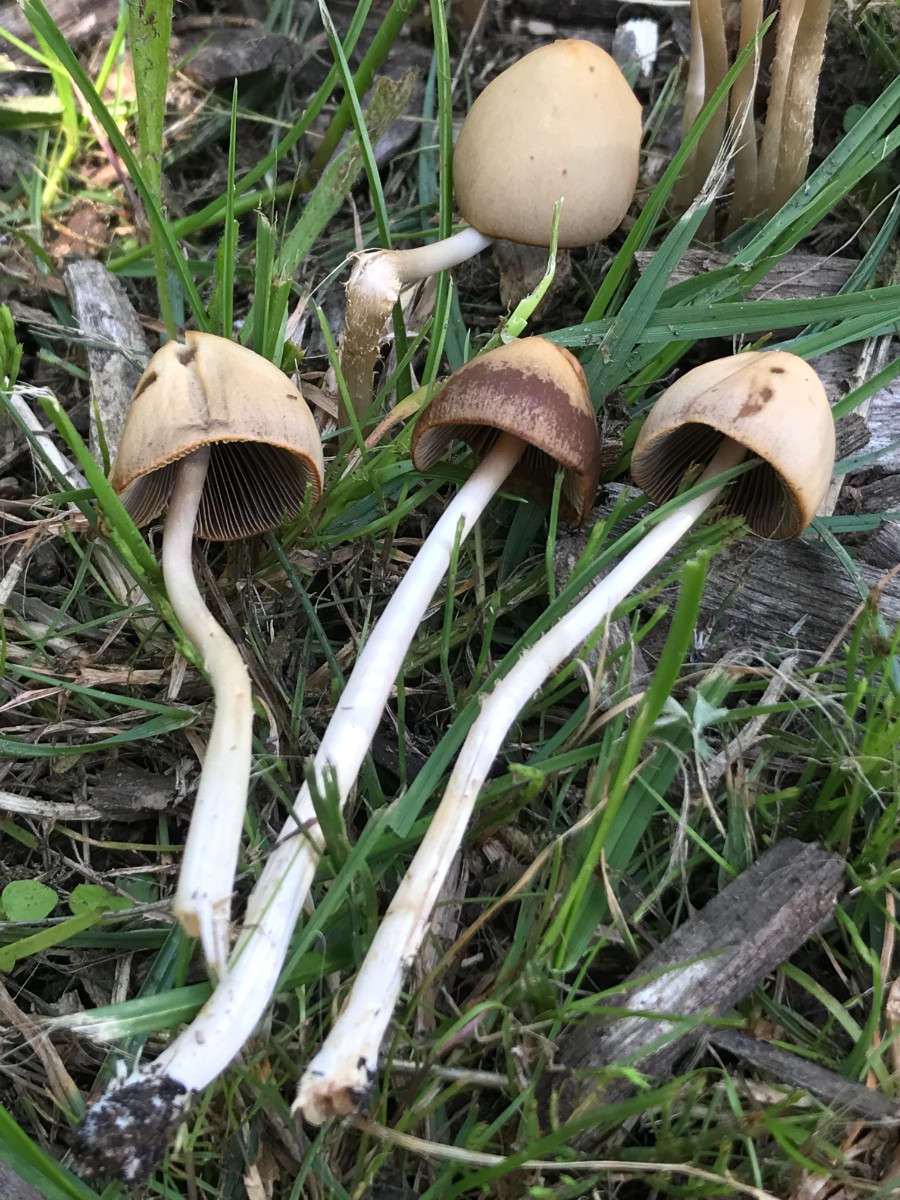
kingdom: Fungi
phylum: Basidiomycota
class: Agaricomycetes
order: Agaricales
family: Psathyrellaceae
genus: Parasola
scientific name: Parasola conopilea
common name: kegle-hjulhat
